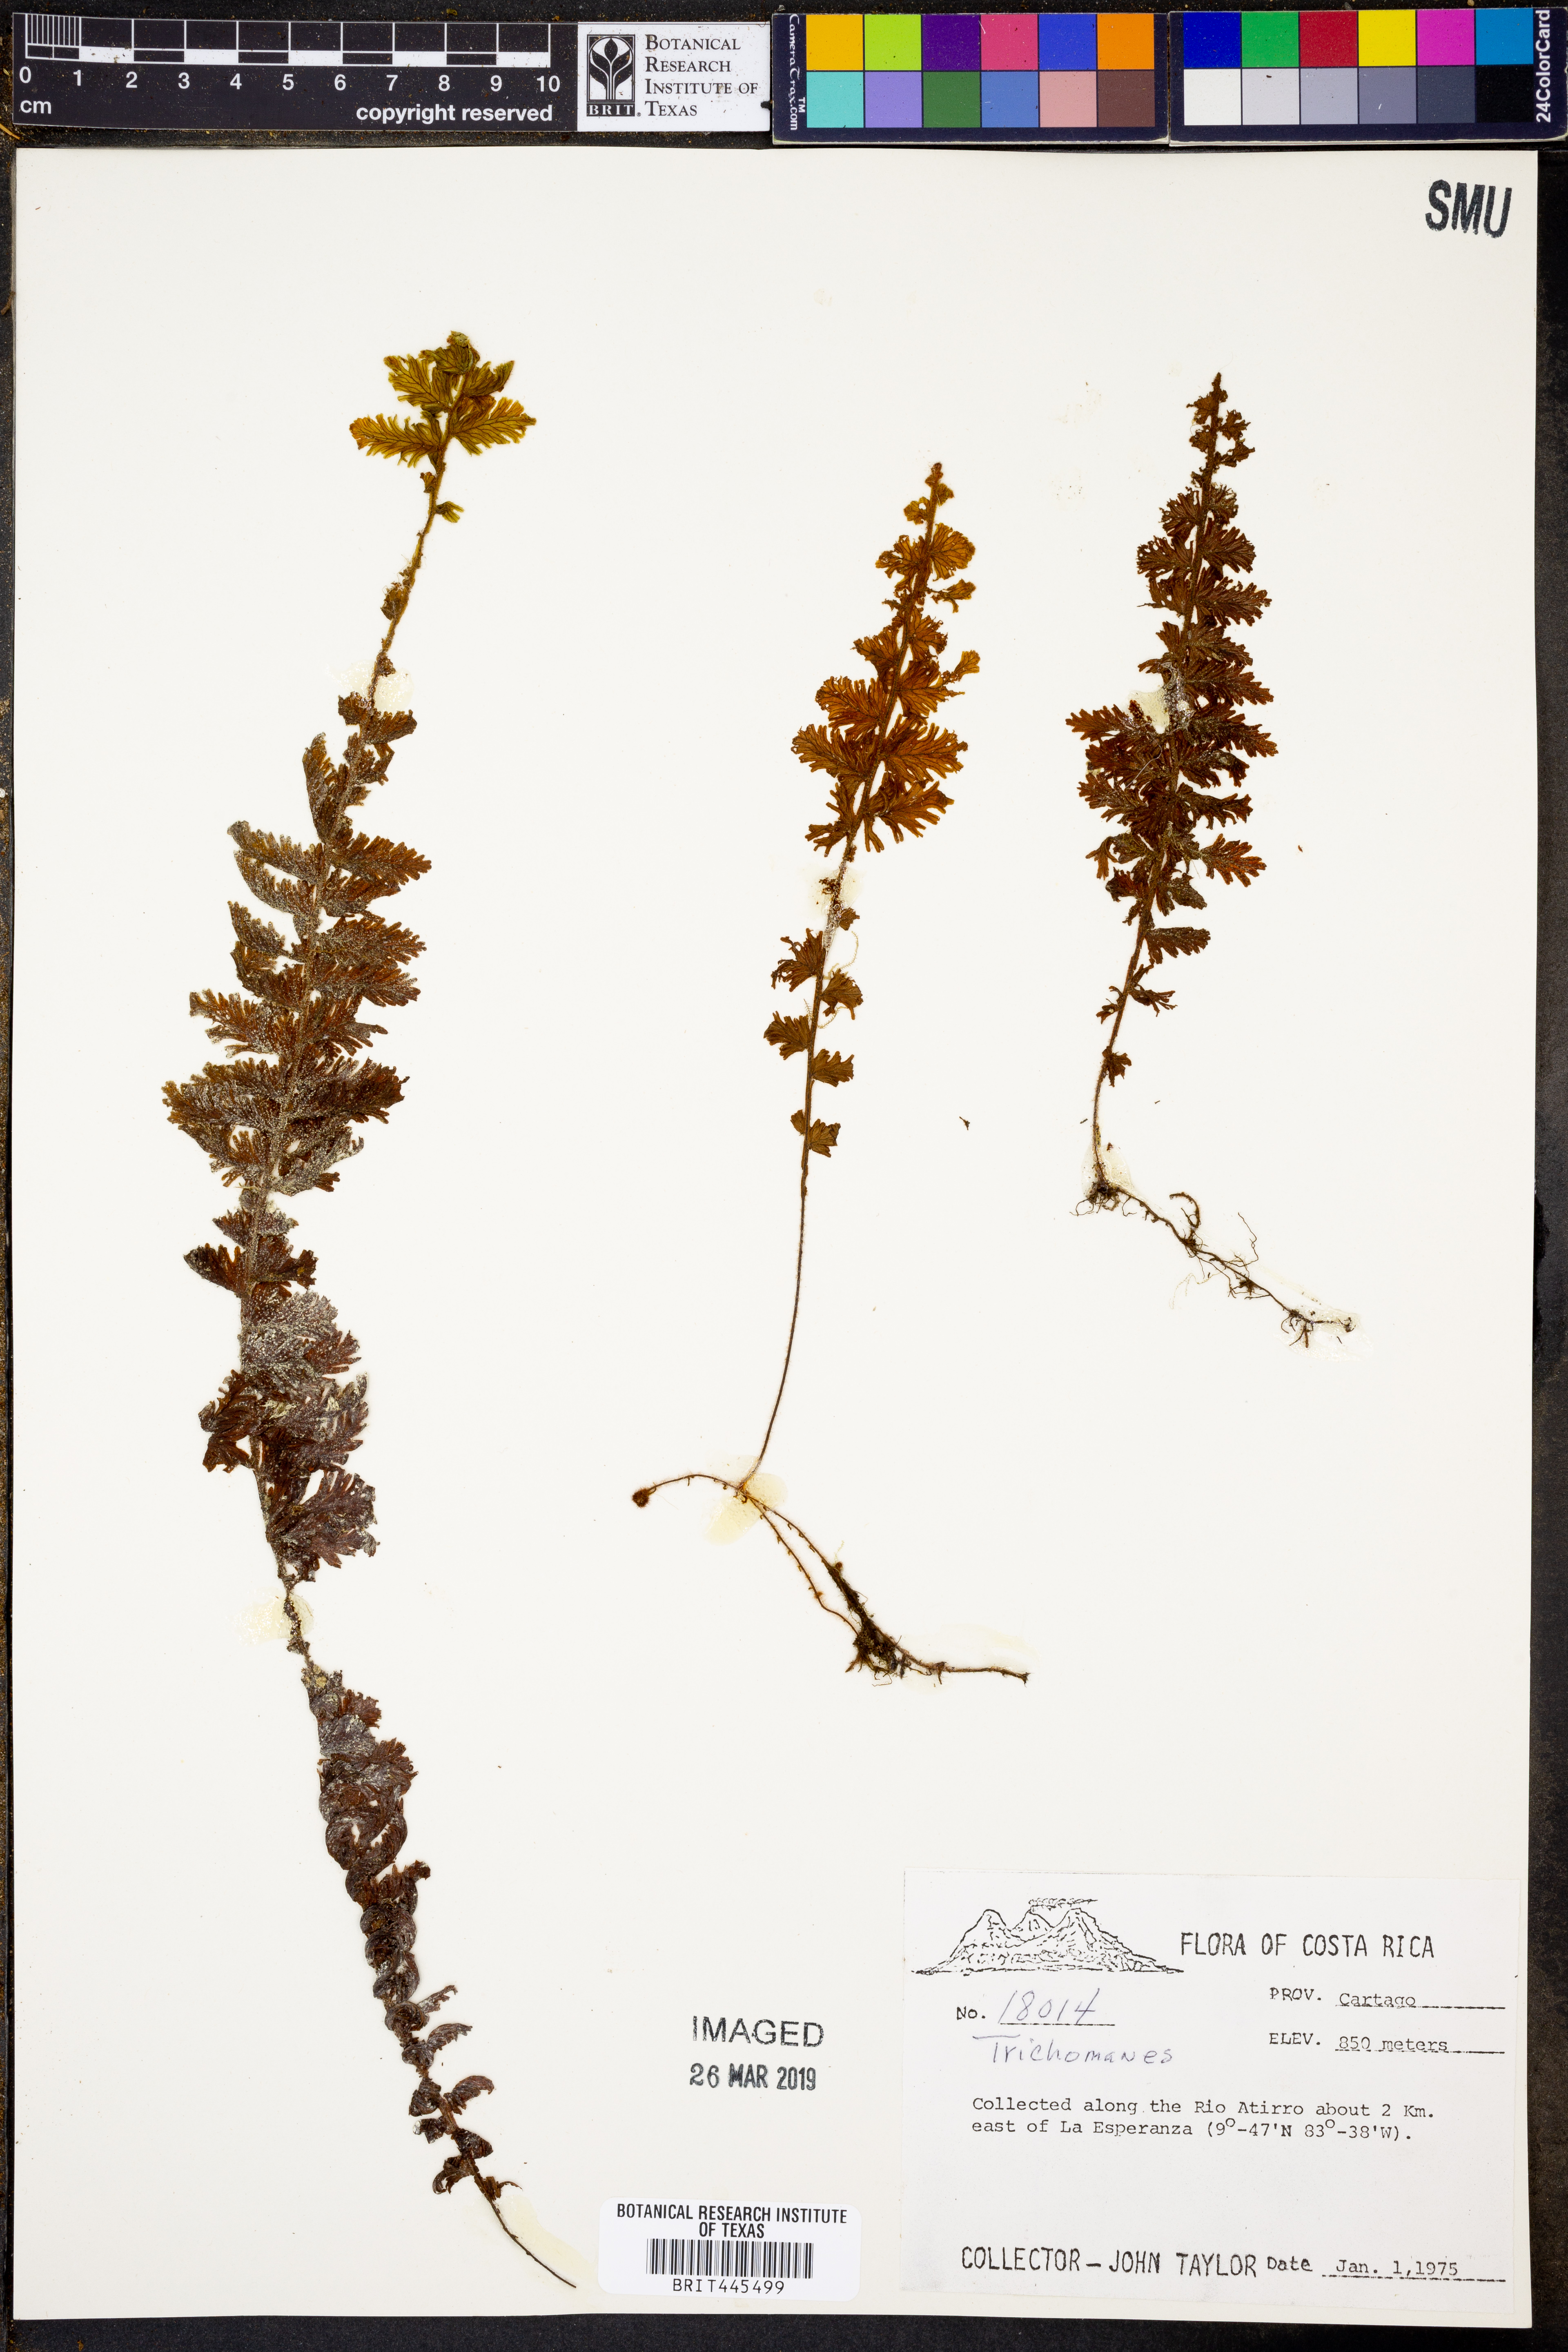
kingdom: Plantae
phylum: Tracheophyta
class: Polypodiopsida
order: Hymenophyllales
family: Hymenophyllaceae
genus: Trichomanes
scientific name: Trichomanes
